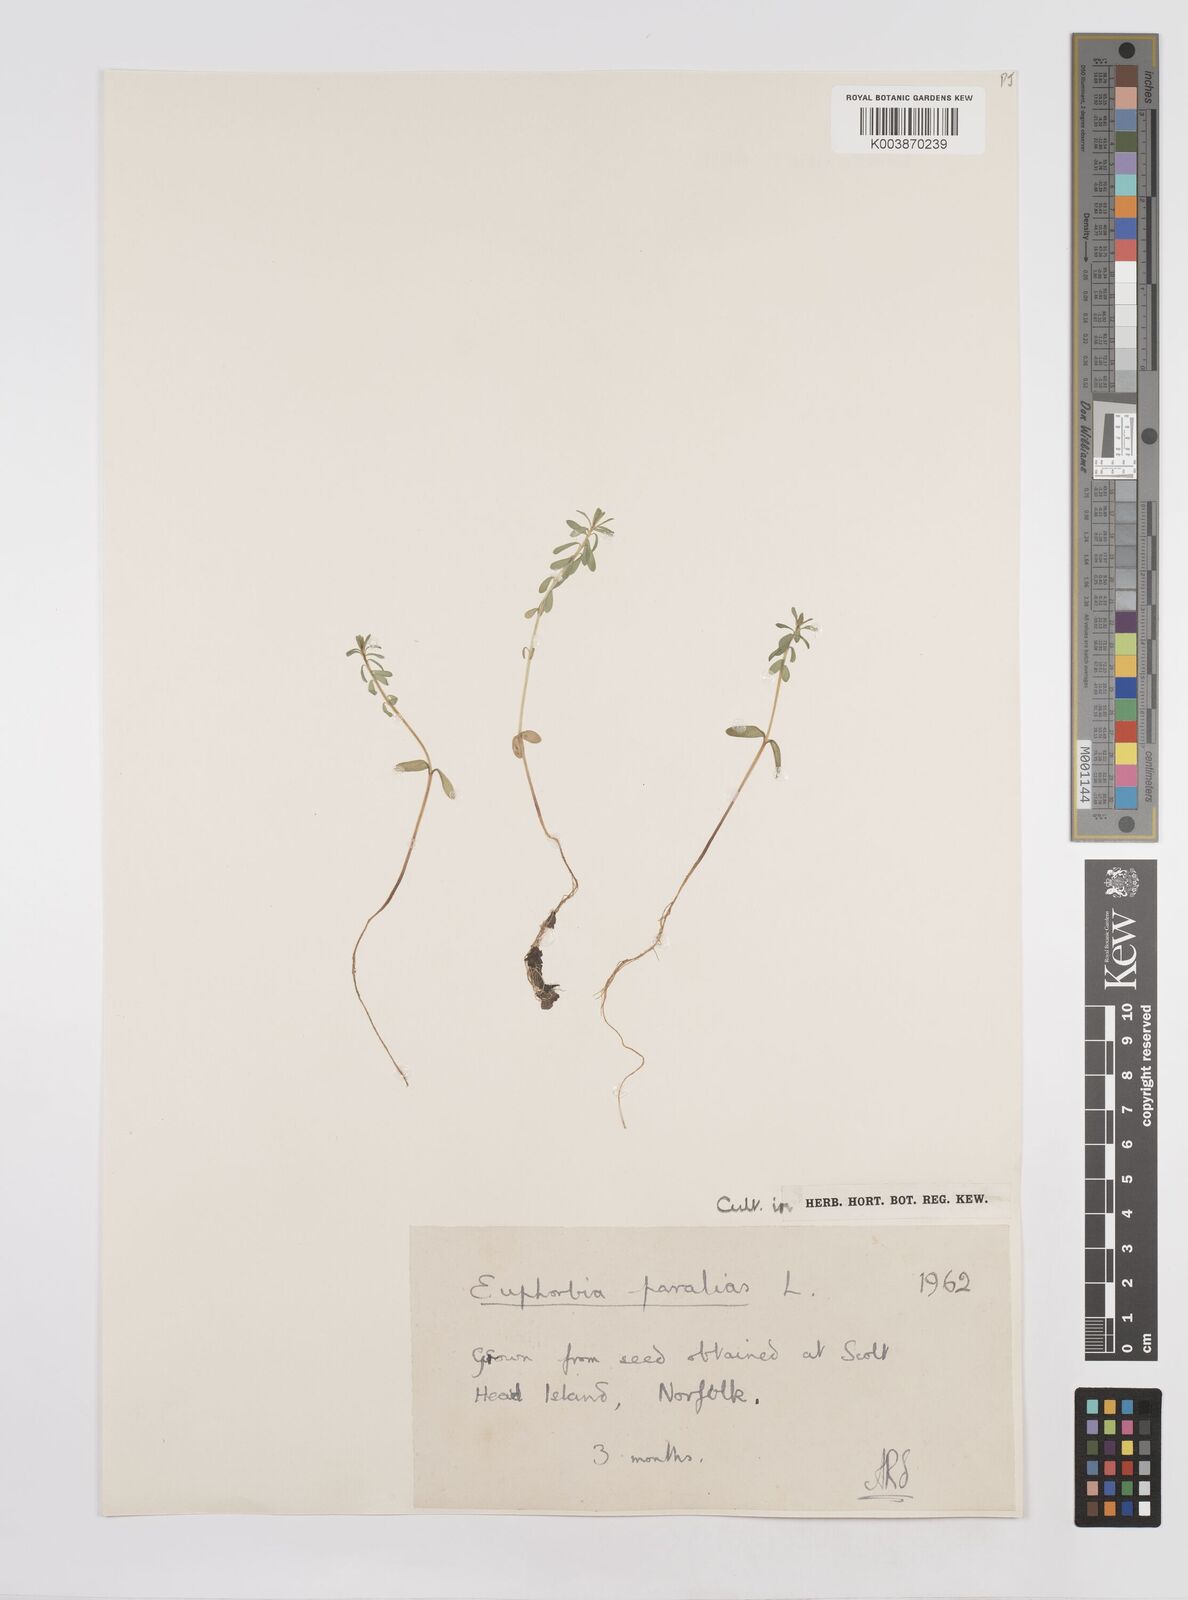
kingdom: Plantae
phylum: Tracheophyta
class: Magnoliopsida
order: Malpighiales
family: Euphorbiaceae
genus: Euphorbia
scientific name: Euphorbia paralias
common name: Sea spurge
